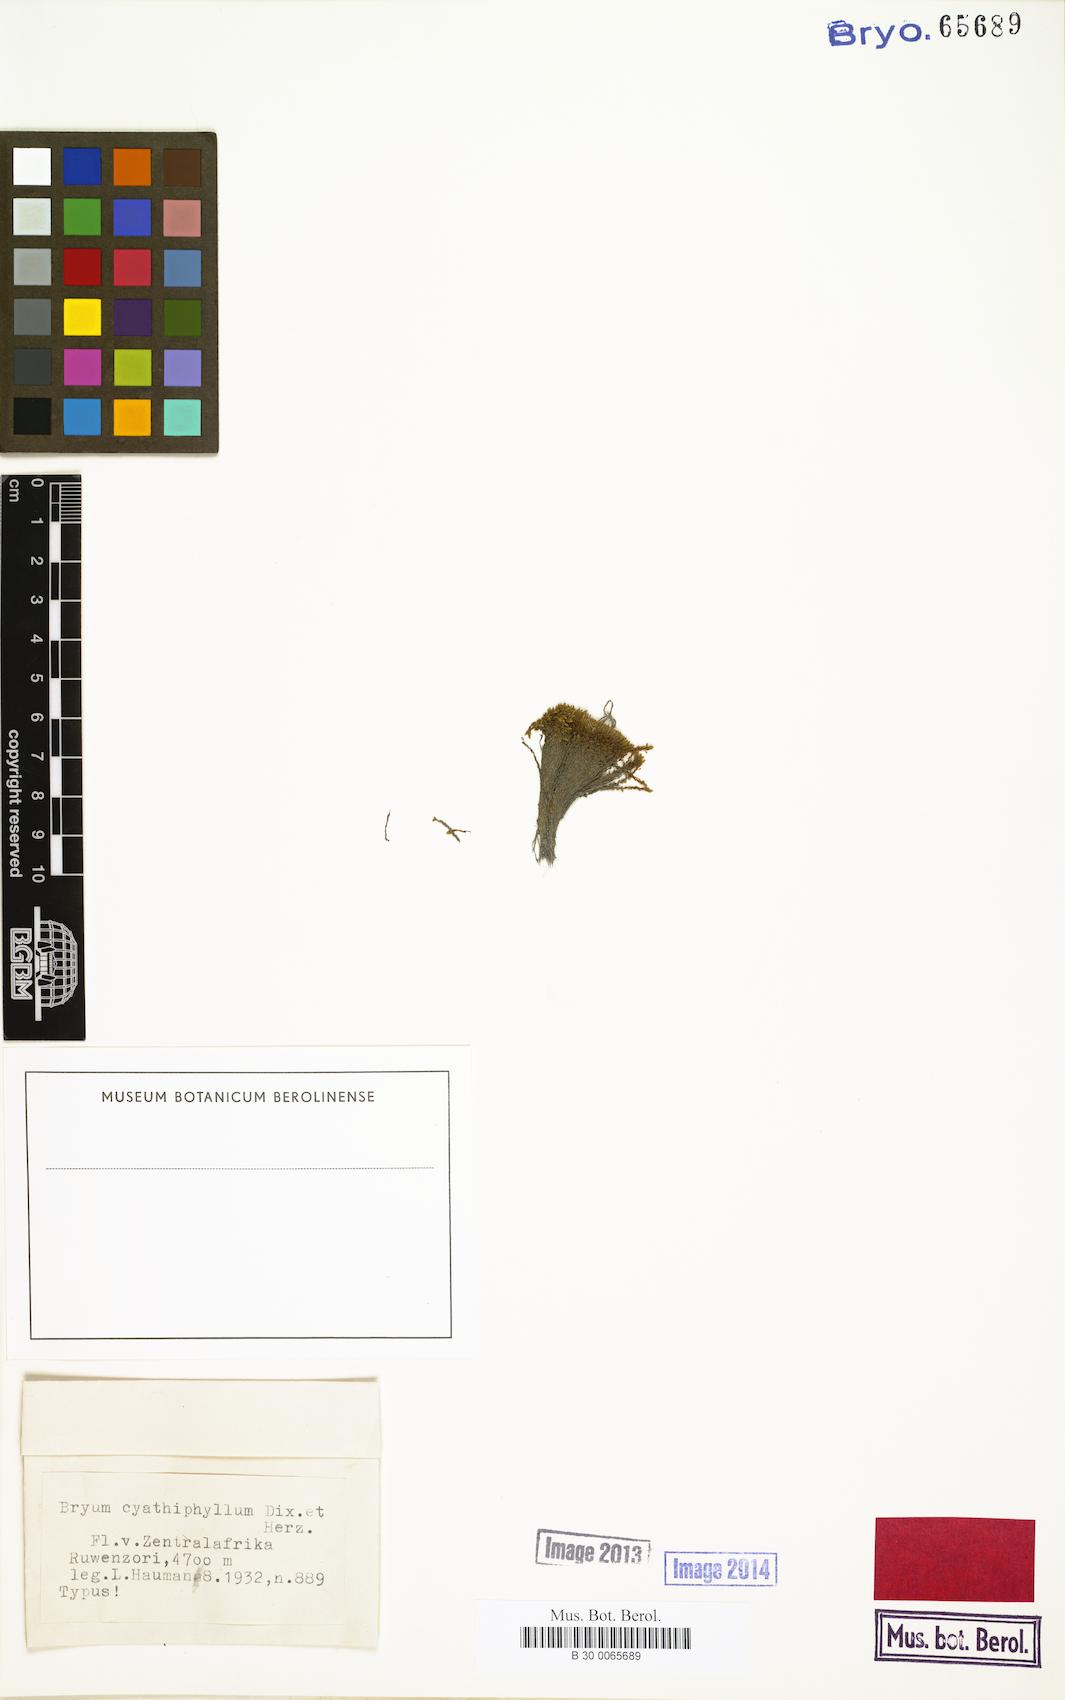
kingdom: Plantae
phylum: Bryophyta
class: Bryopsida
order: Bryales
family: Bryaceae
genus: Bryum
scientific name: Bryum argenteum
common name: Silver-moss
